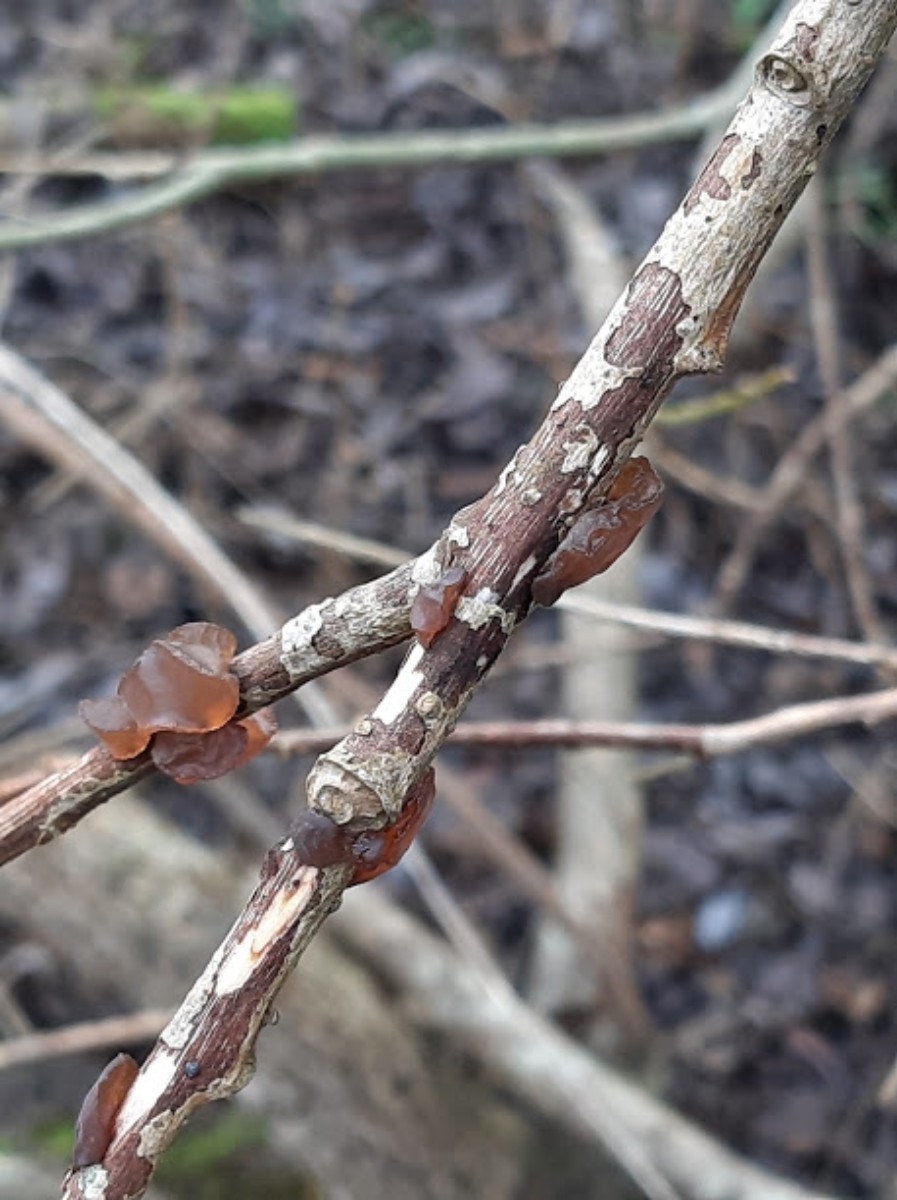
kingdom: Fungi
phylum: Basidiomycota
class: Agaricomycetes
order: Auriculariales
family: Auriculariaceae
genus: Exidia
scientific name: Exidia recisa
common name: pile-bævretop
